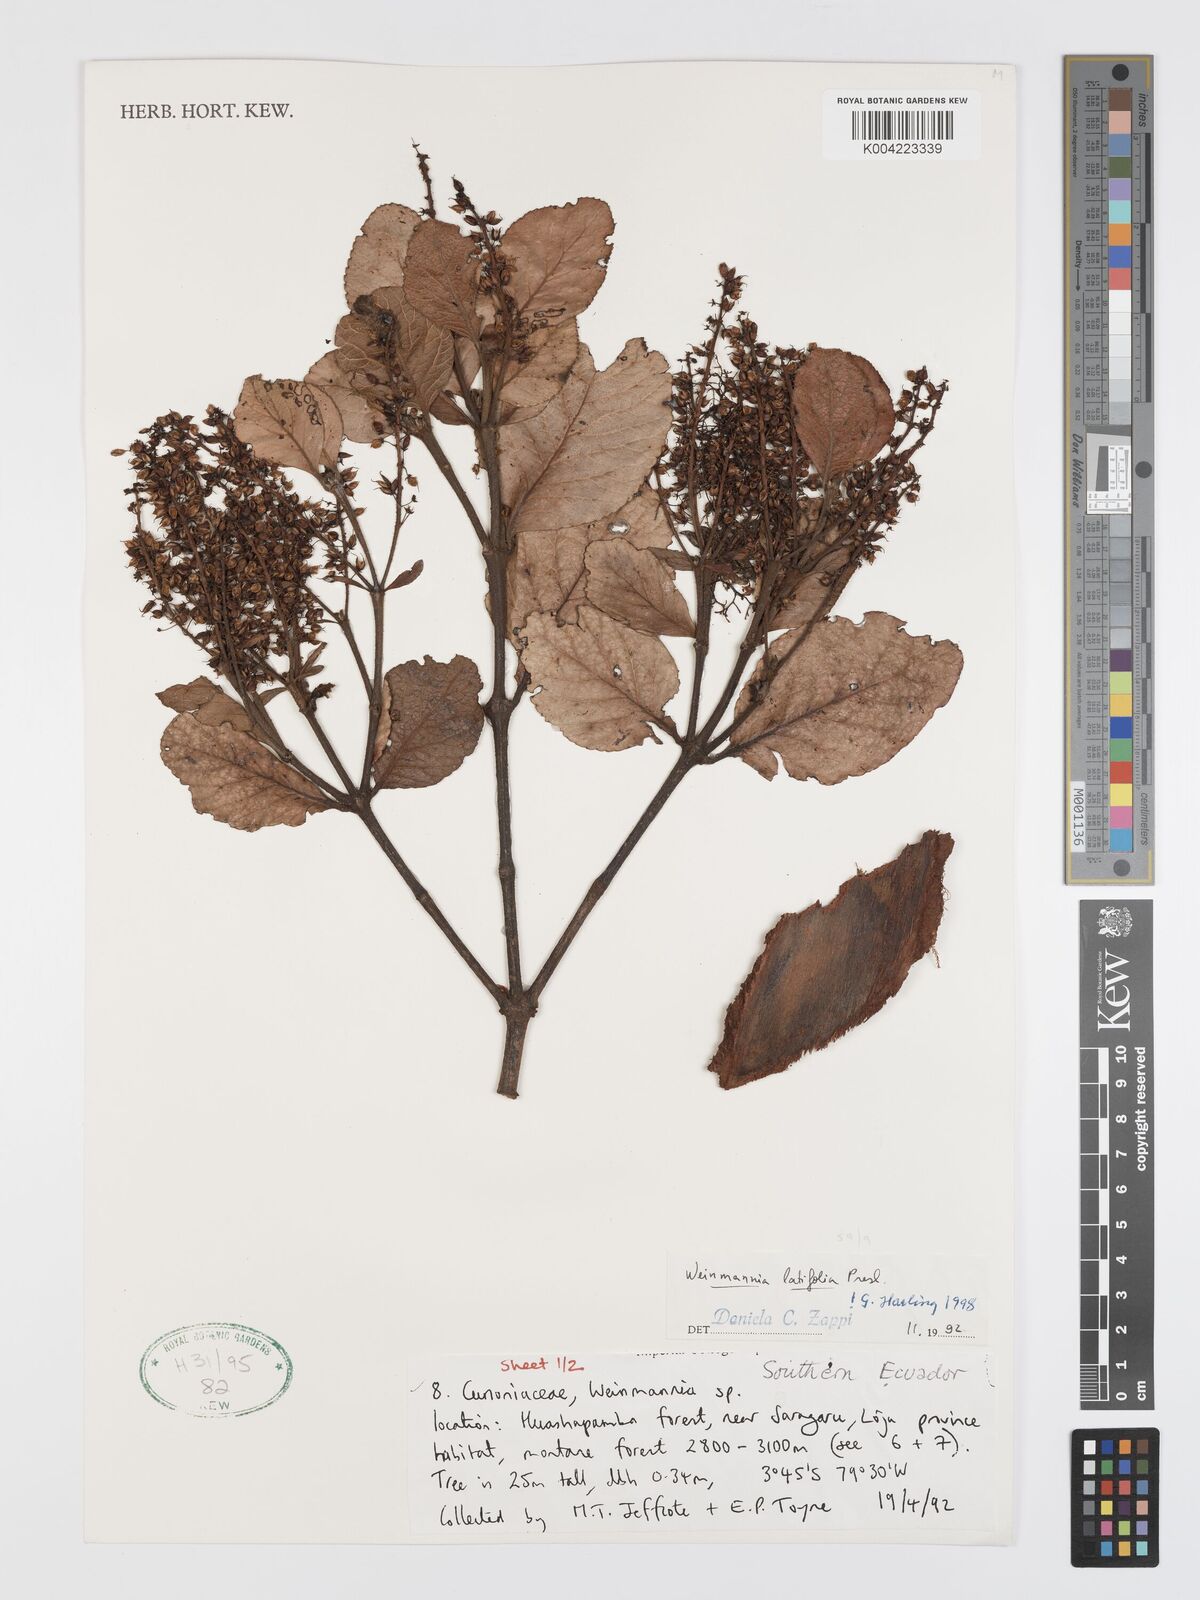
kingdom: Plantae
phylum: Tracheophyta
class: Magnoliopsida
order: Oxalidales
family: Cunoniaceae
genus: Weinmannia
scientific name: Weinmannia latifolia
